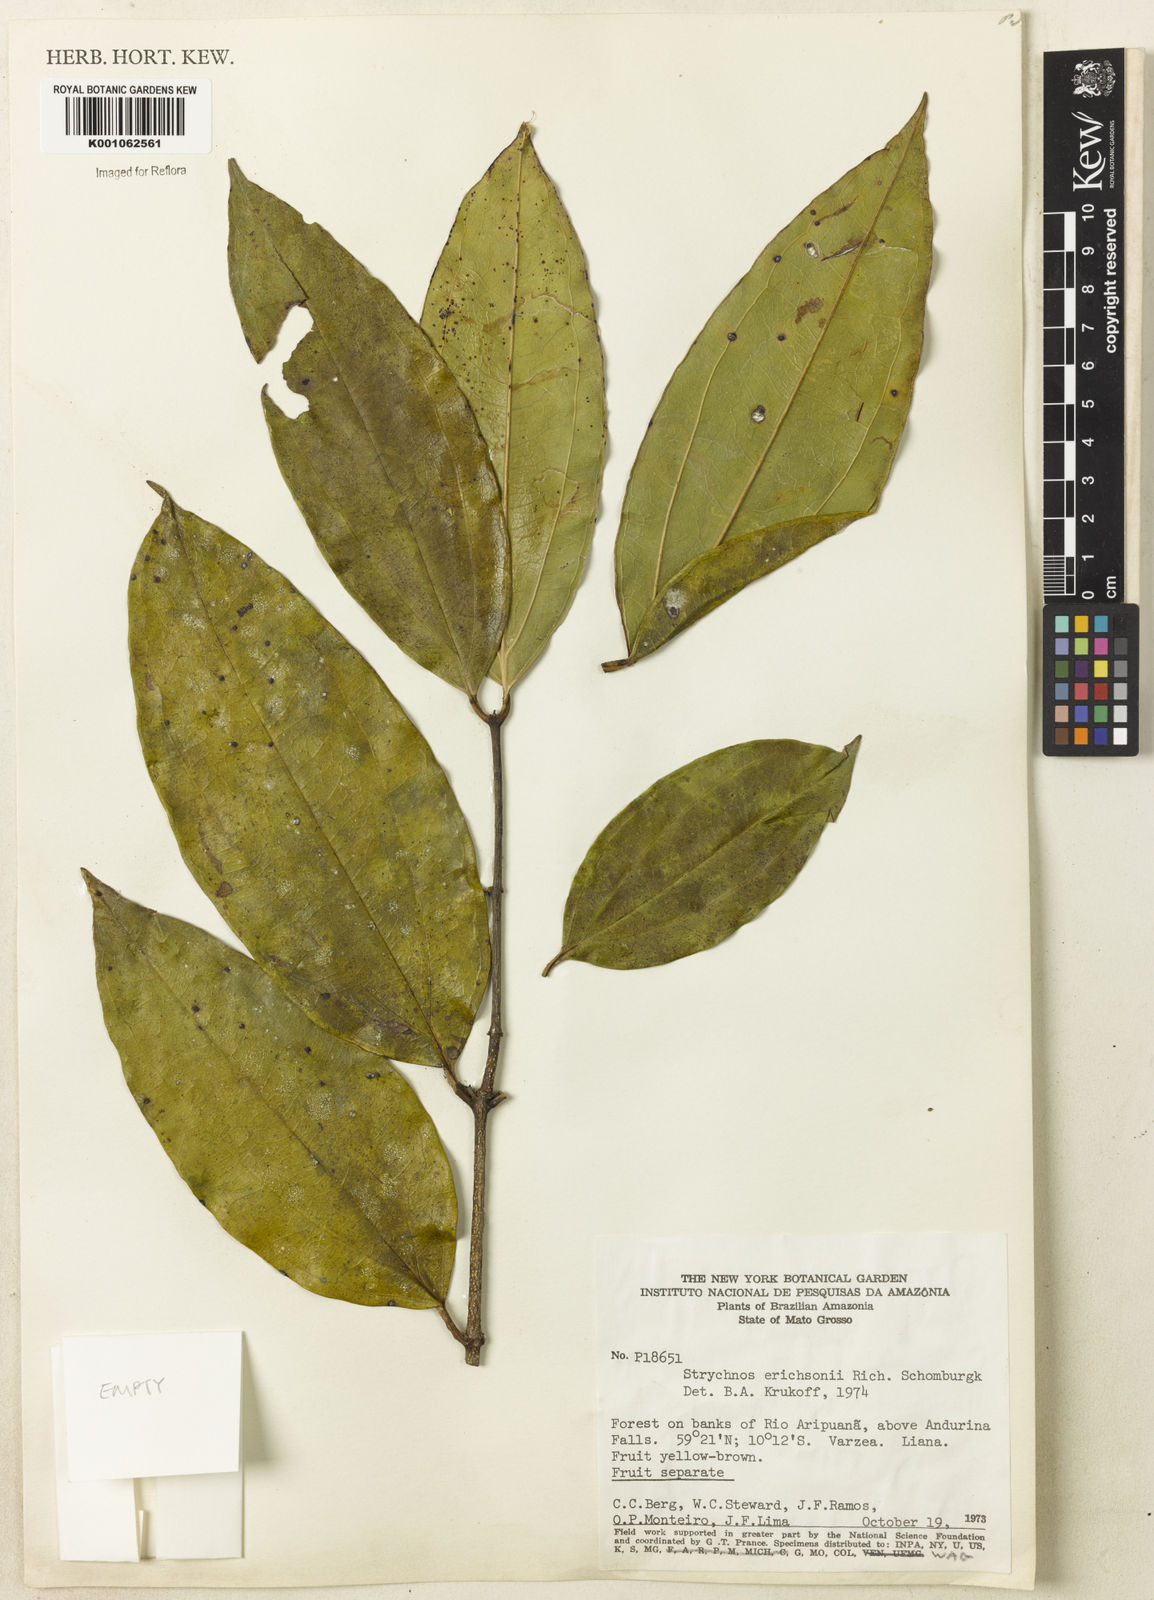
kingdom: Plantae
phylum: Tracheophyta
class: Magnoliopsida
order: Gentianales
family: Loganiaceae
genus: Strychnos
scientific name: Strychnos erichsonii
